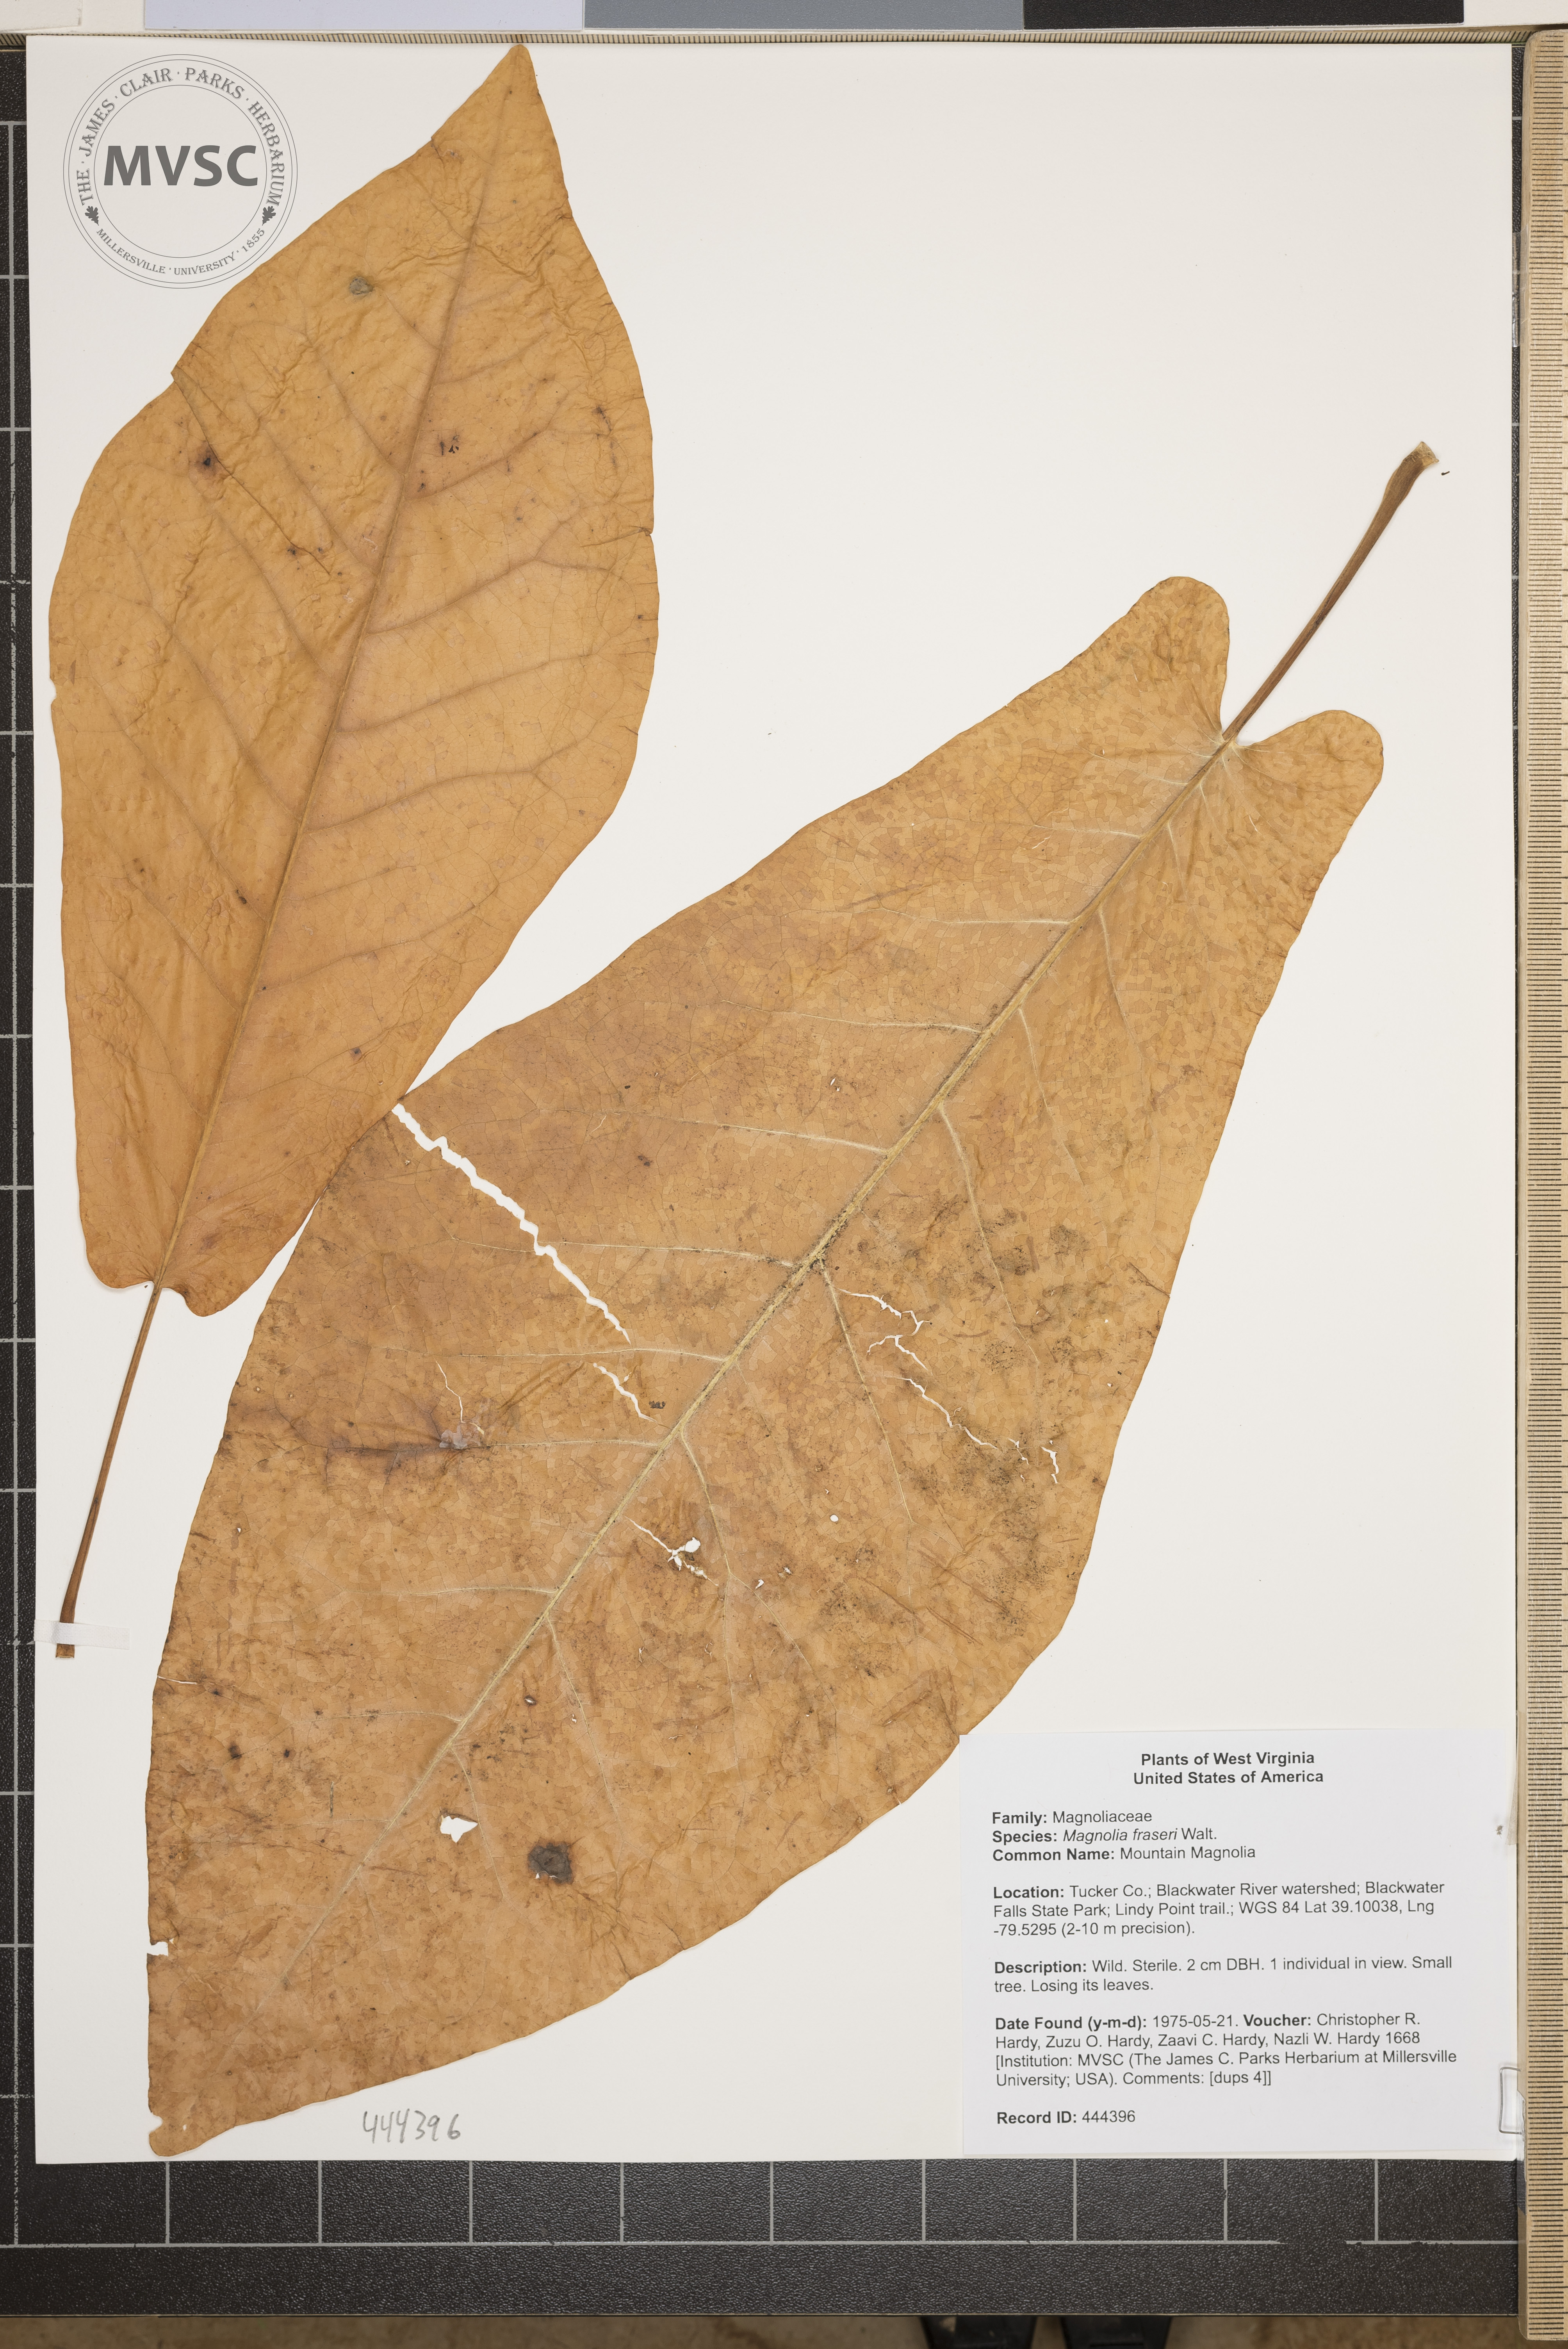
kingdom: Plantae
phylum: Tracheophyta
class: Magnoliopsida
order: Magnoliales
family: Magnoliaceae
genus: Magnolia
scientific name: Magnolia fraseri
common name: Mountain Magnolia
